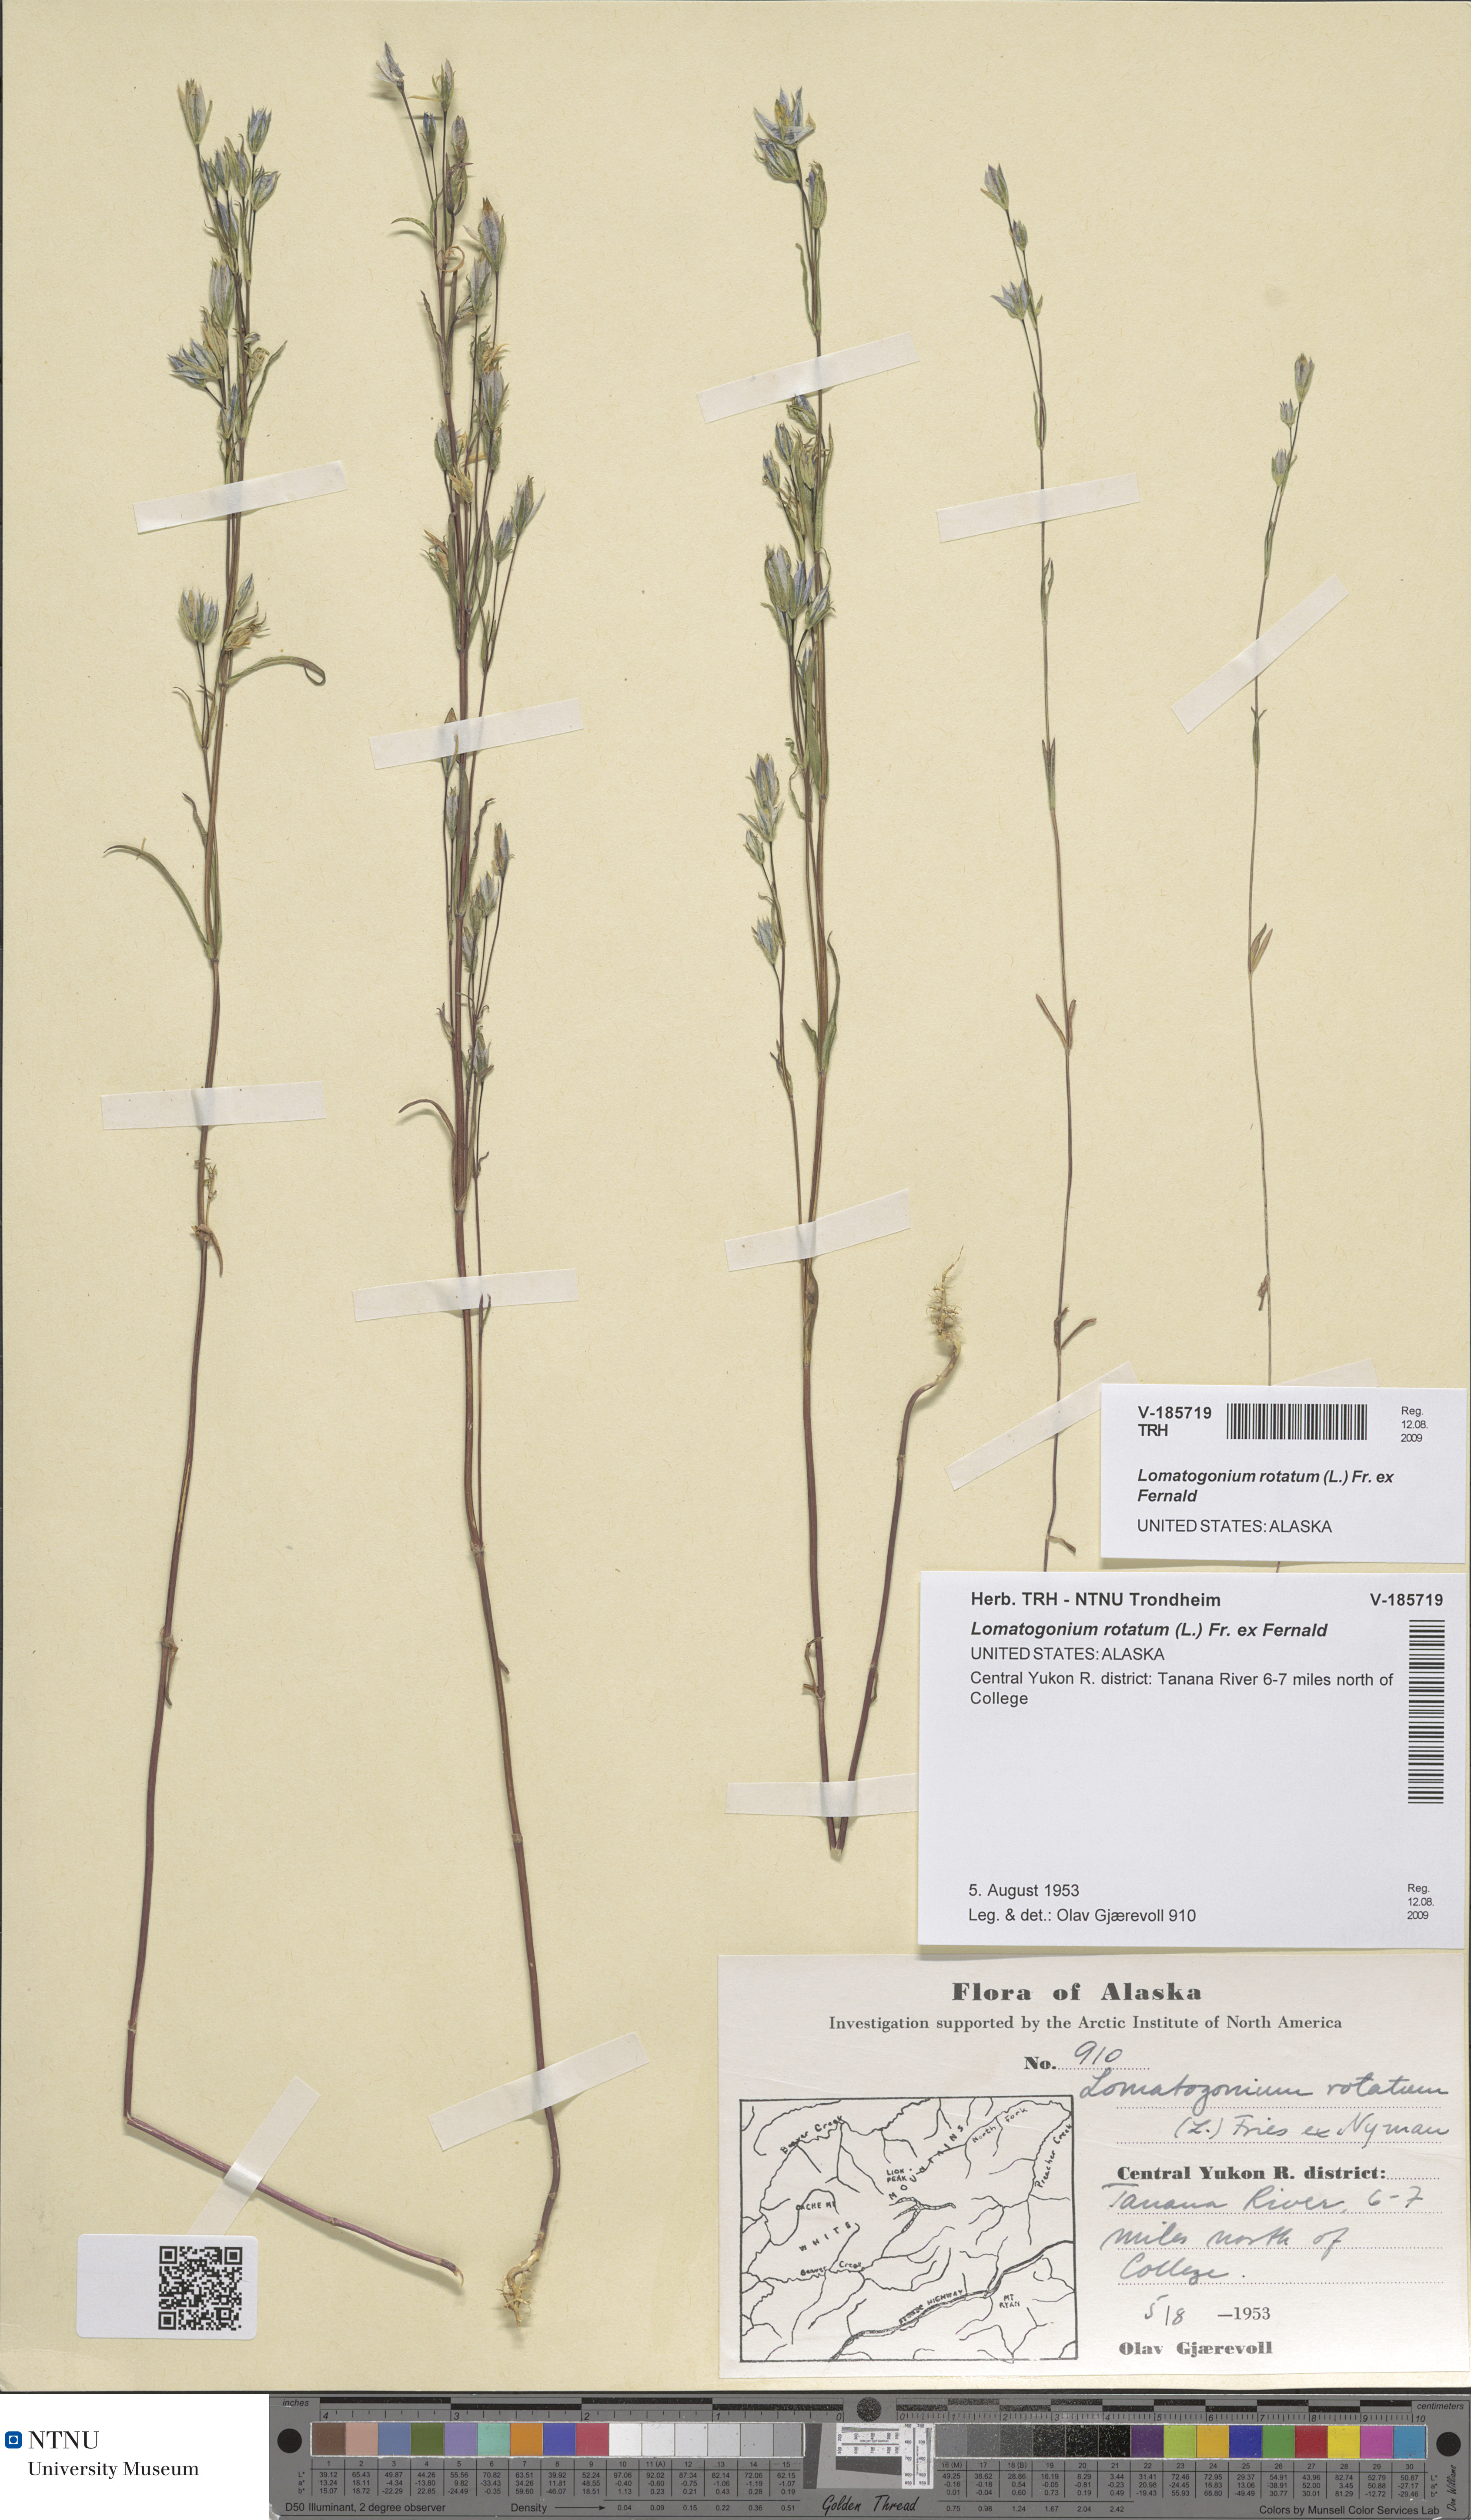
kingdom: Plantae
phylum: Tracheophyta
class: Magnoliopsida
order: Gentianales
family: Gentianaceae
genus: Lomatogonium
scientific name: Lomatogonium rotatum
